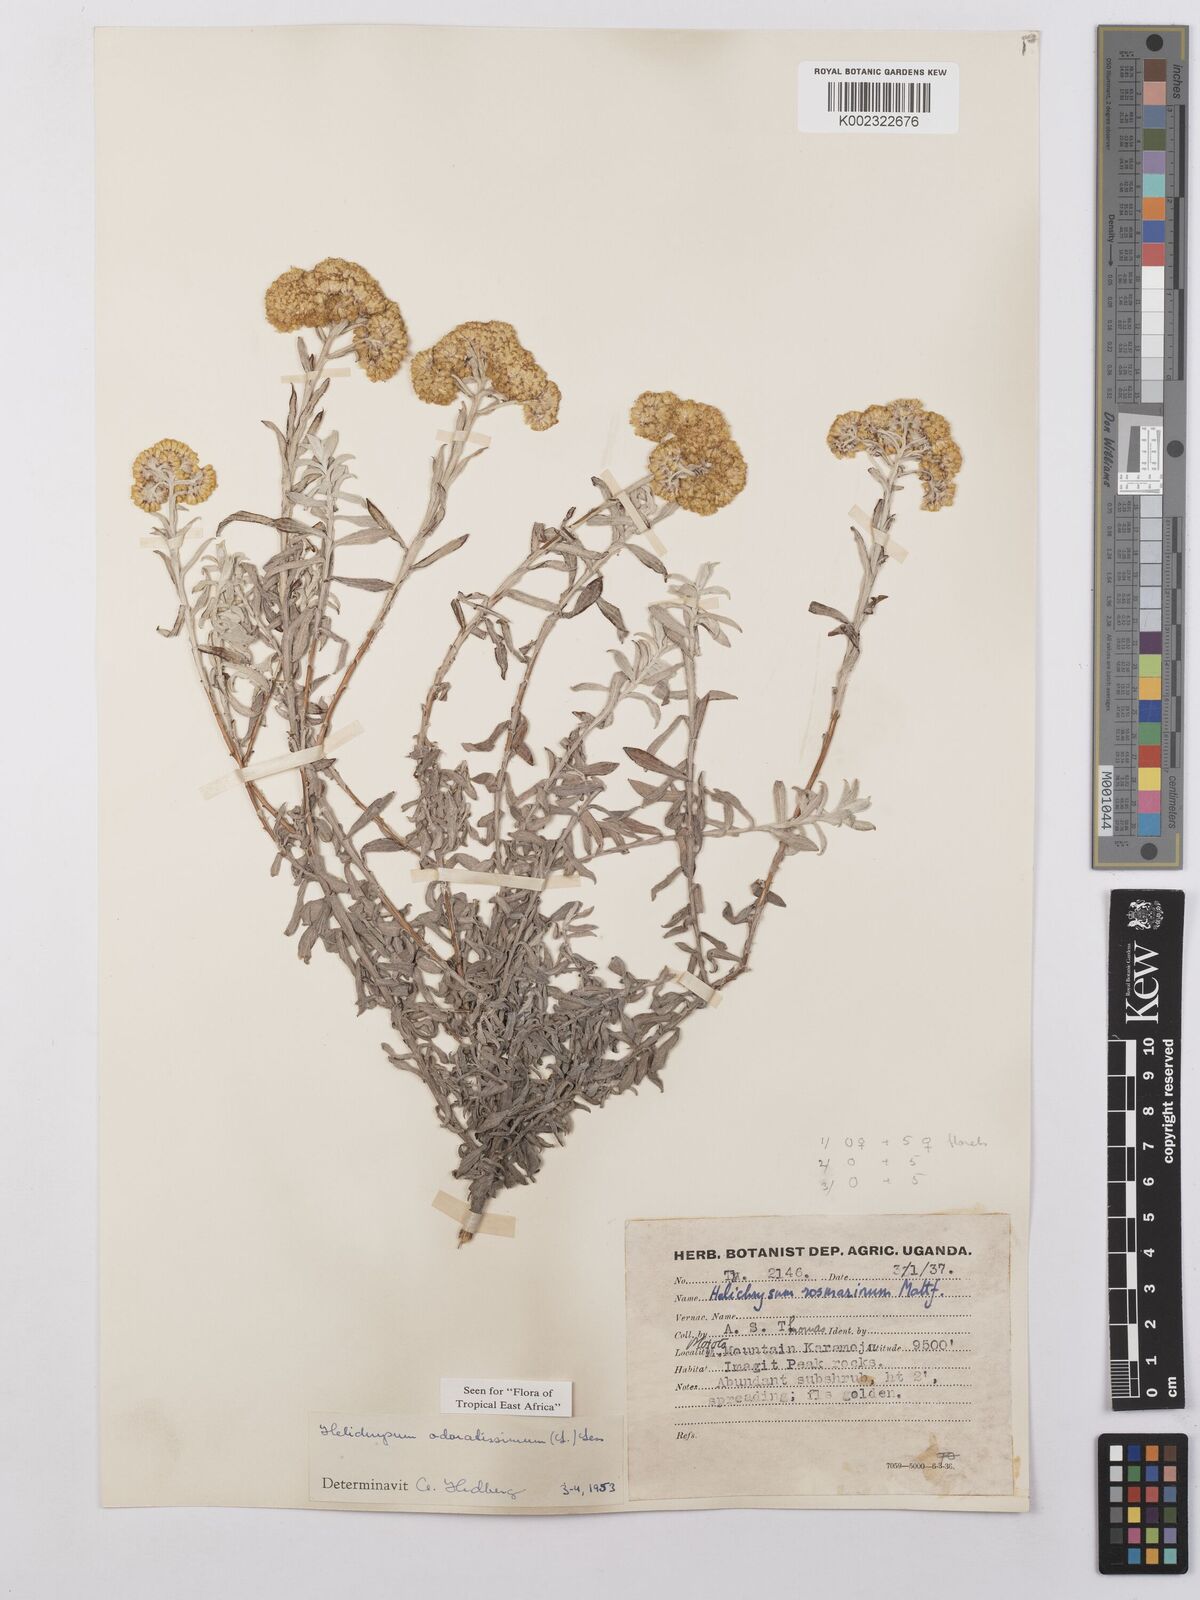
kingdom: Plantae
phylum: Tracheophyta
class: Magnoliopsida
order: Asterales
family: Asteraceae
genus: Helichrysum
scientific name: Helichrysum odoratissimum
